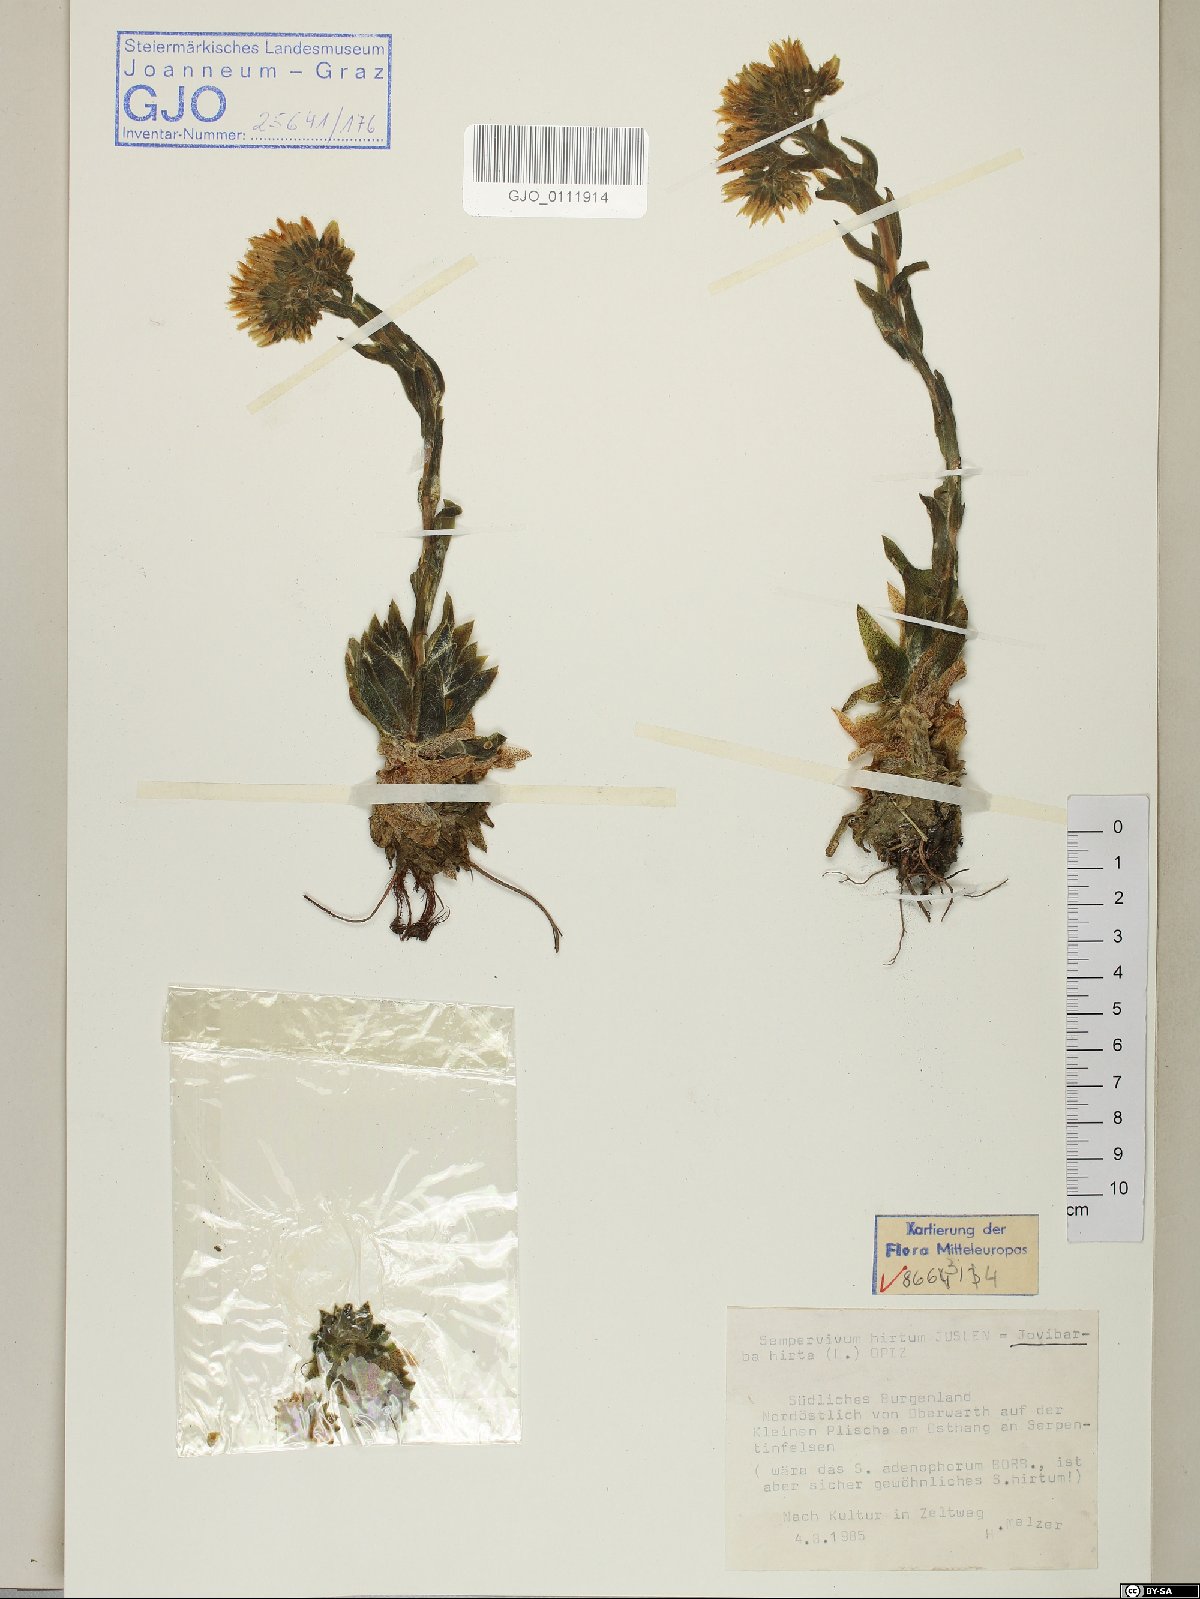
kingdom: Plantae
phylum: Tracheophyta
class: Magnoliopsida
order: Saxifragales
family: Crassulaceae
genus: Sempervivum
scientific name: Sempervivum globiferum
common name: Rolling hen-and-chicks
